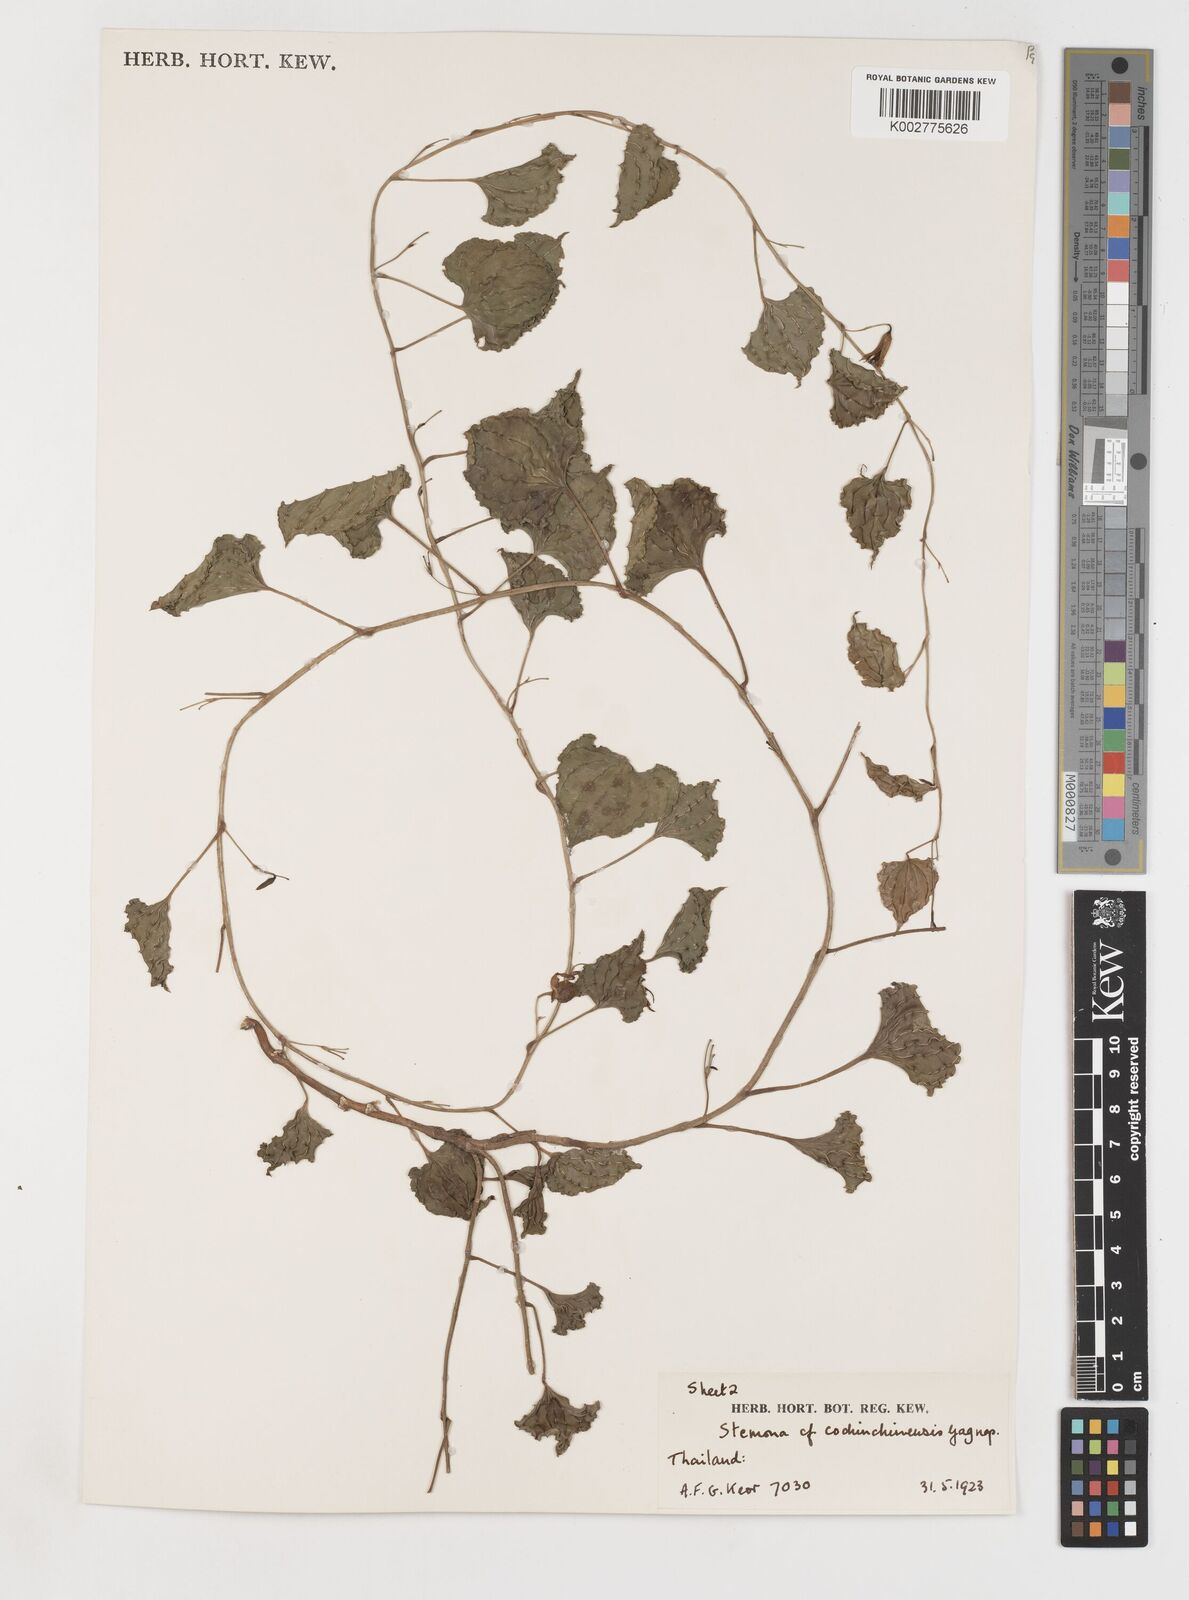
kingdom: Plantae
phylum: Tracheophyta
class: Liliopsida
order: Pandanales
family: Stemonaceae
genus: Stemona
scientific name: Stemona cochinchinensis
